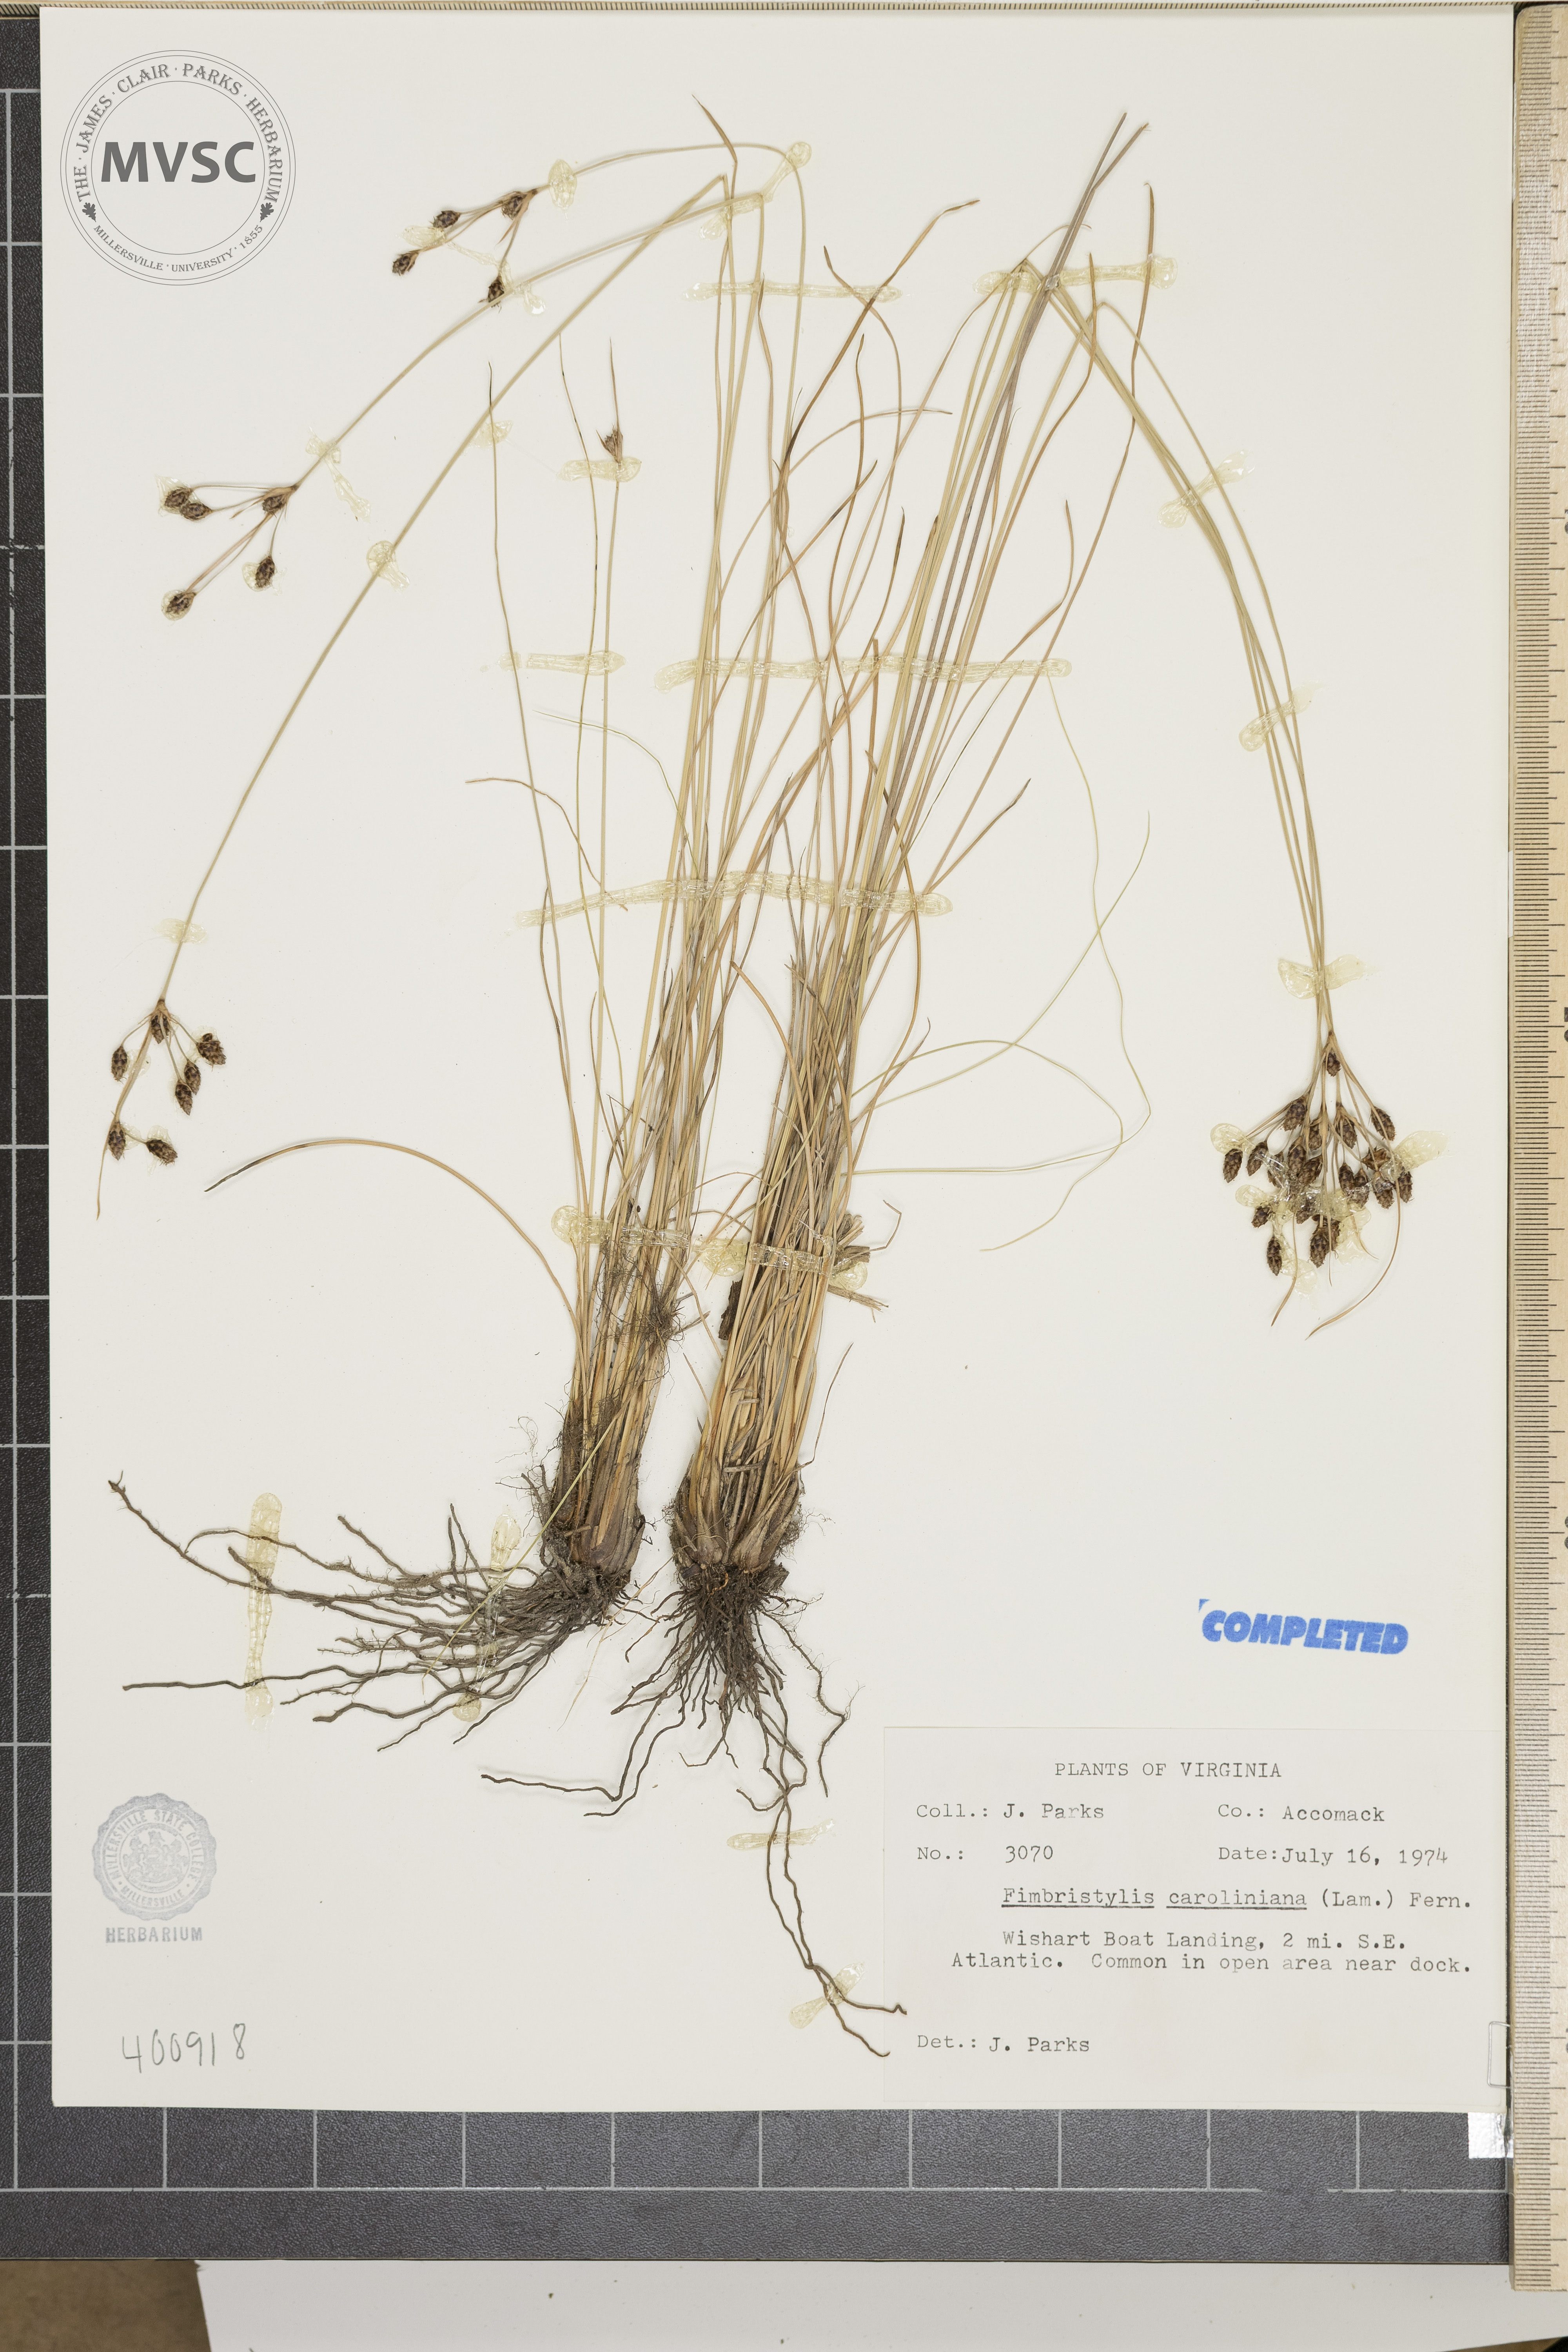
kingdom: Plantae
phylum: Tracheophyta
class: Liliopsida
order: Poales
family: Cyperaceae
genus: Fimbristylis
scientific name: Fimbristylis caroliniana
